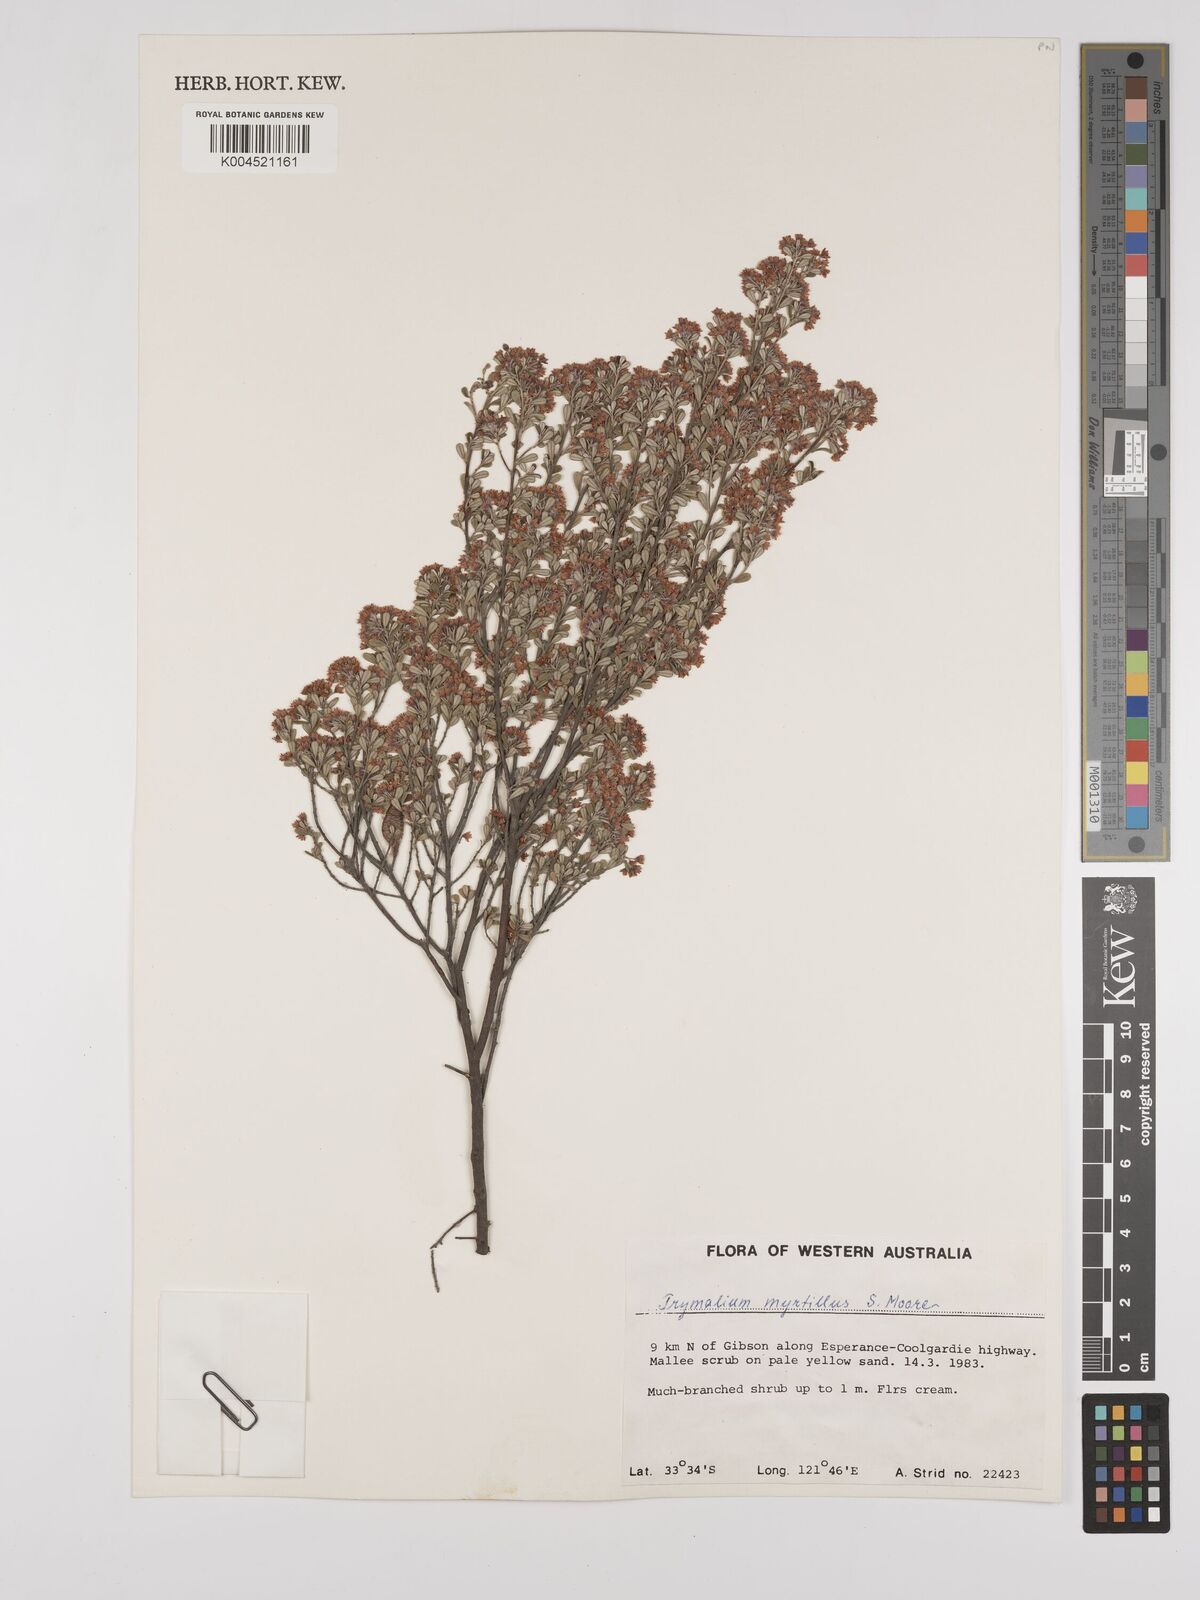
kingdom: Plantae
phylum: Tracheophyta
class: Magnoliopsida
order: Rosales
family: Rhamnaceae
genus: Trymalium
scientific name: Trymalium myrtillus
